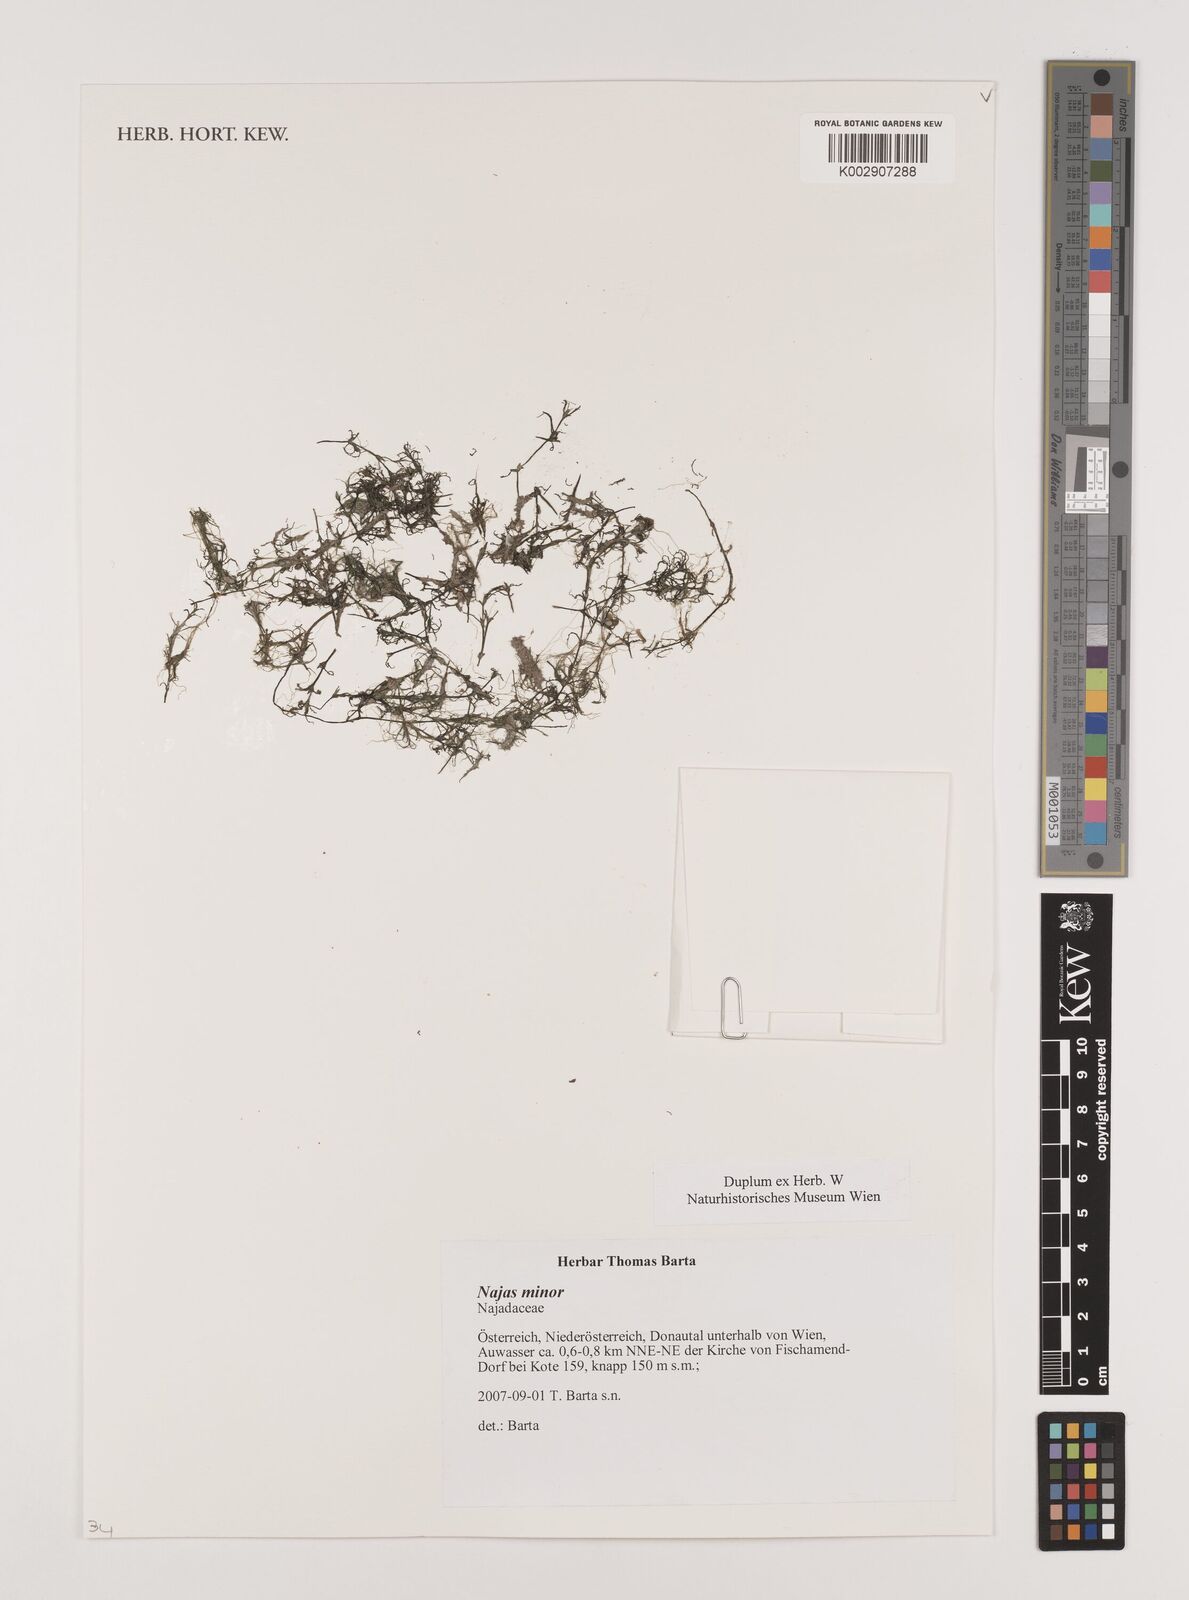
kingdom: Plantae
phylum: Tracheophyta
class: Liliopsida
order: Alismatales
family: Hydrocharitaceae
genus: Najas
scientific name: Najas minor
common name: Brittle naiad
